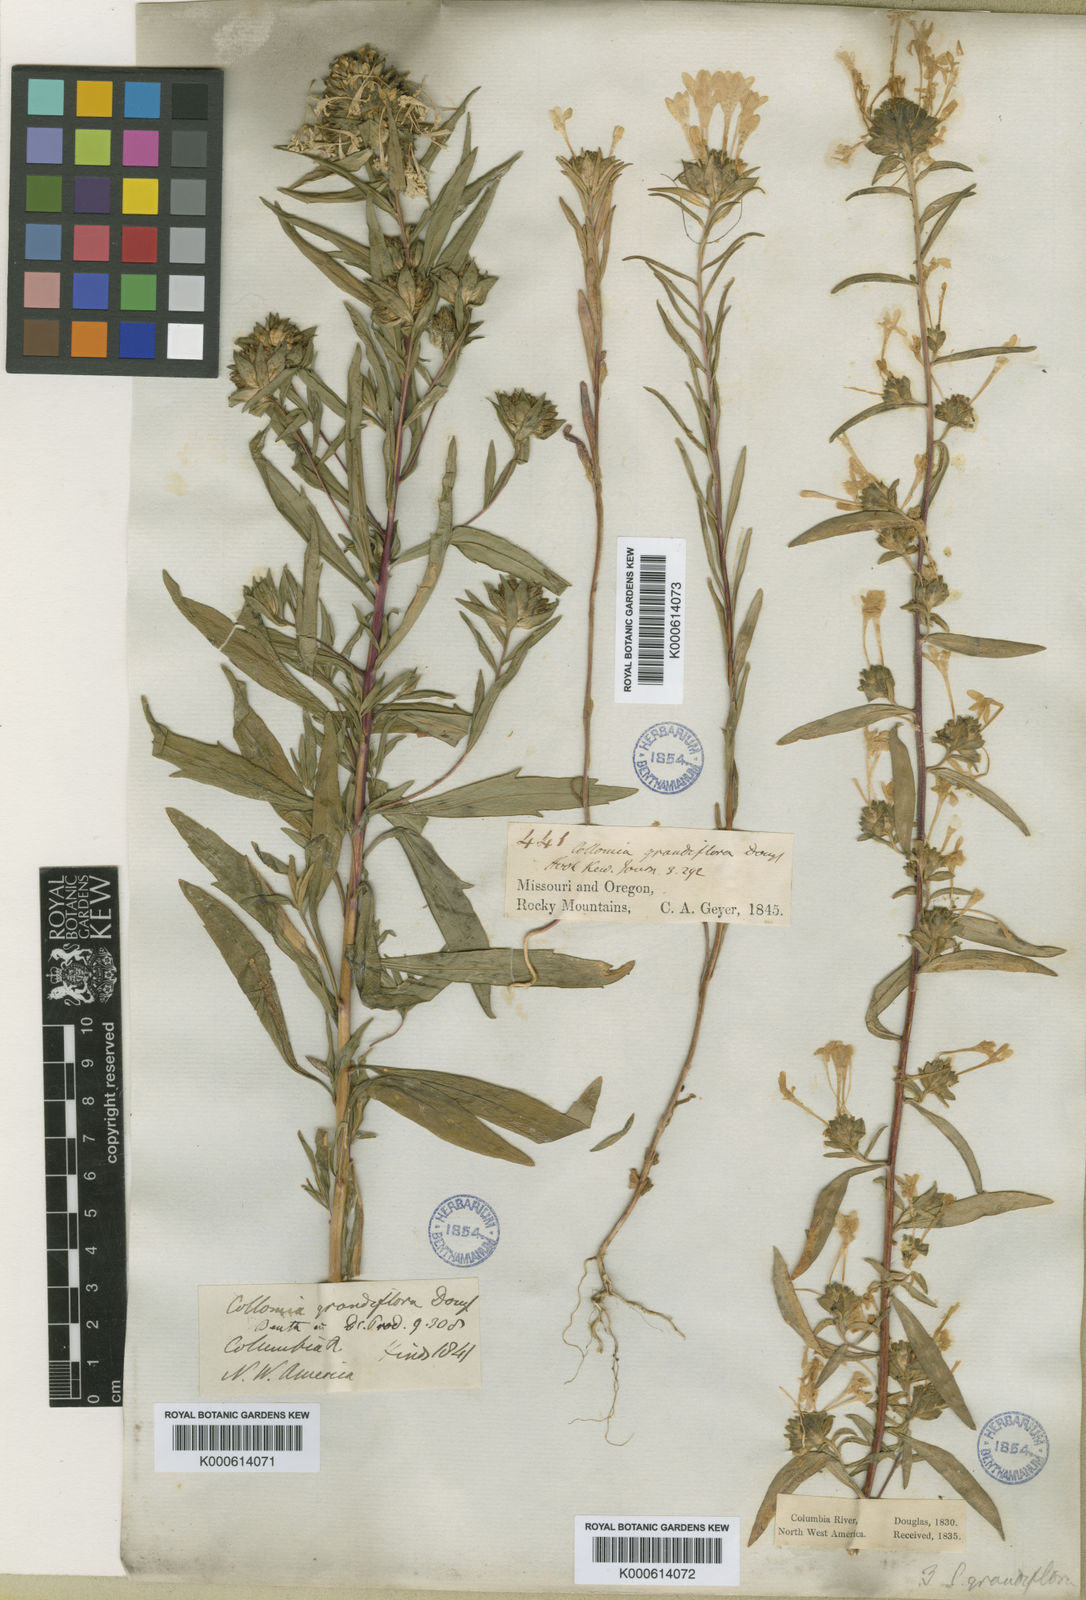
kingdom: Plantae
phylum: Tracheophyta
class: Magnoliopsida
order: Ericales
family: Polemoniaceae
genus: Collomia
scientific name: Collomia grandiflora
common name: California strawflower
